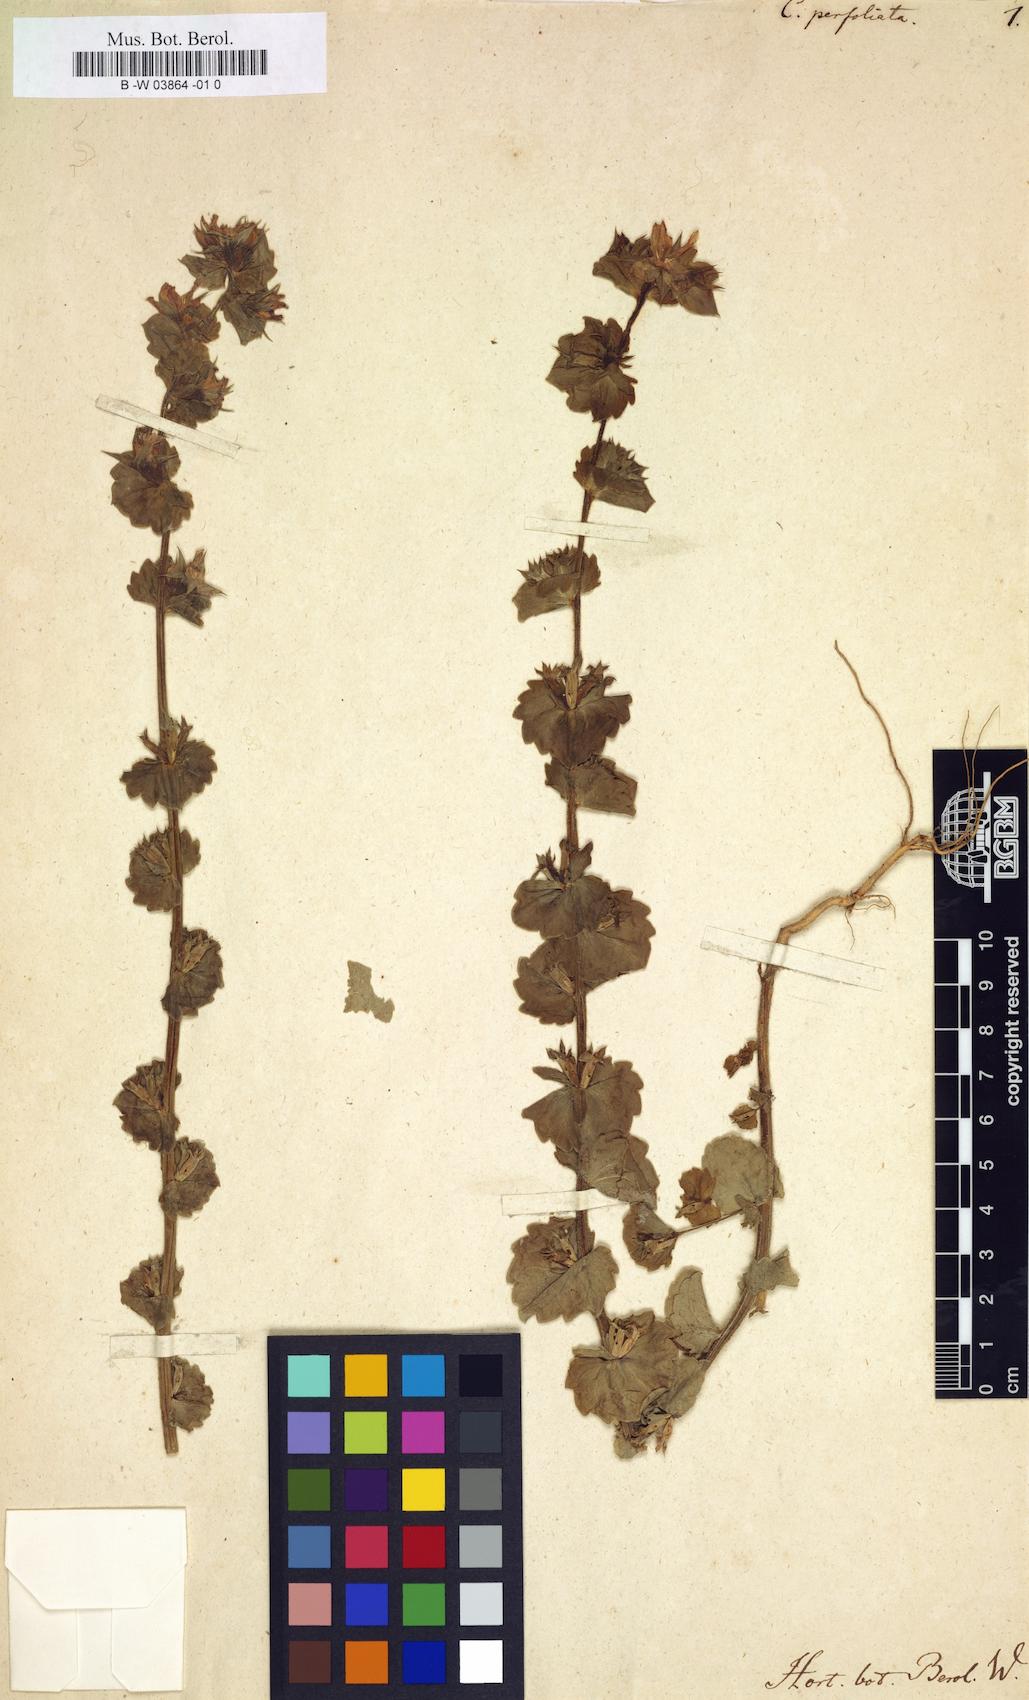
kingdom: Plantae
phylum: Tracheophyta
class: Magnoliopsida
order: Asterales
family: Campanulaceae
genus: Triodanis
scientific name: Triodanis perfoliata
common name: Clasping venus' looking-glass
